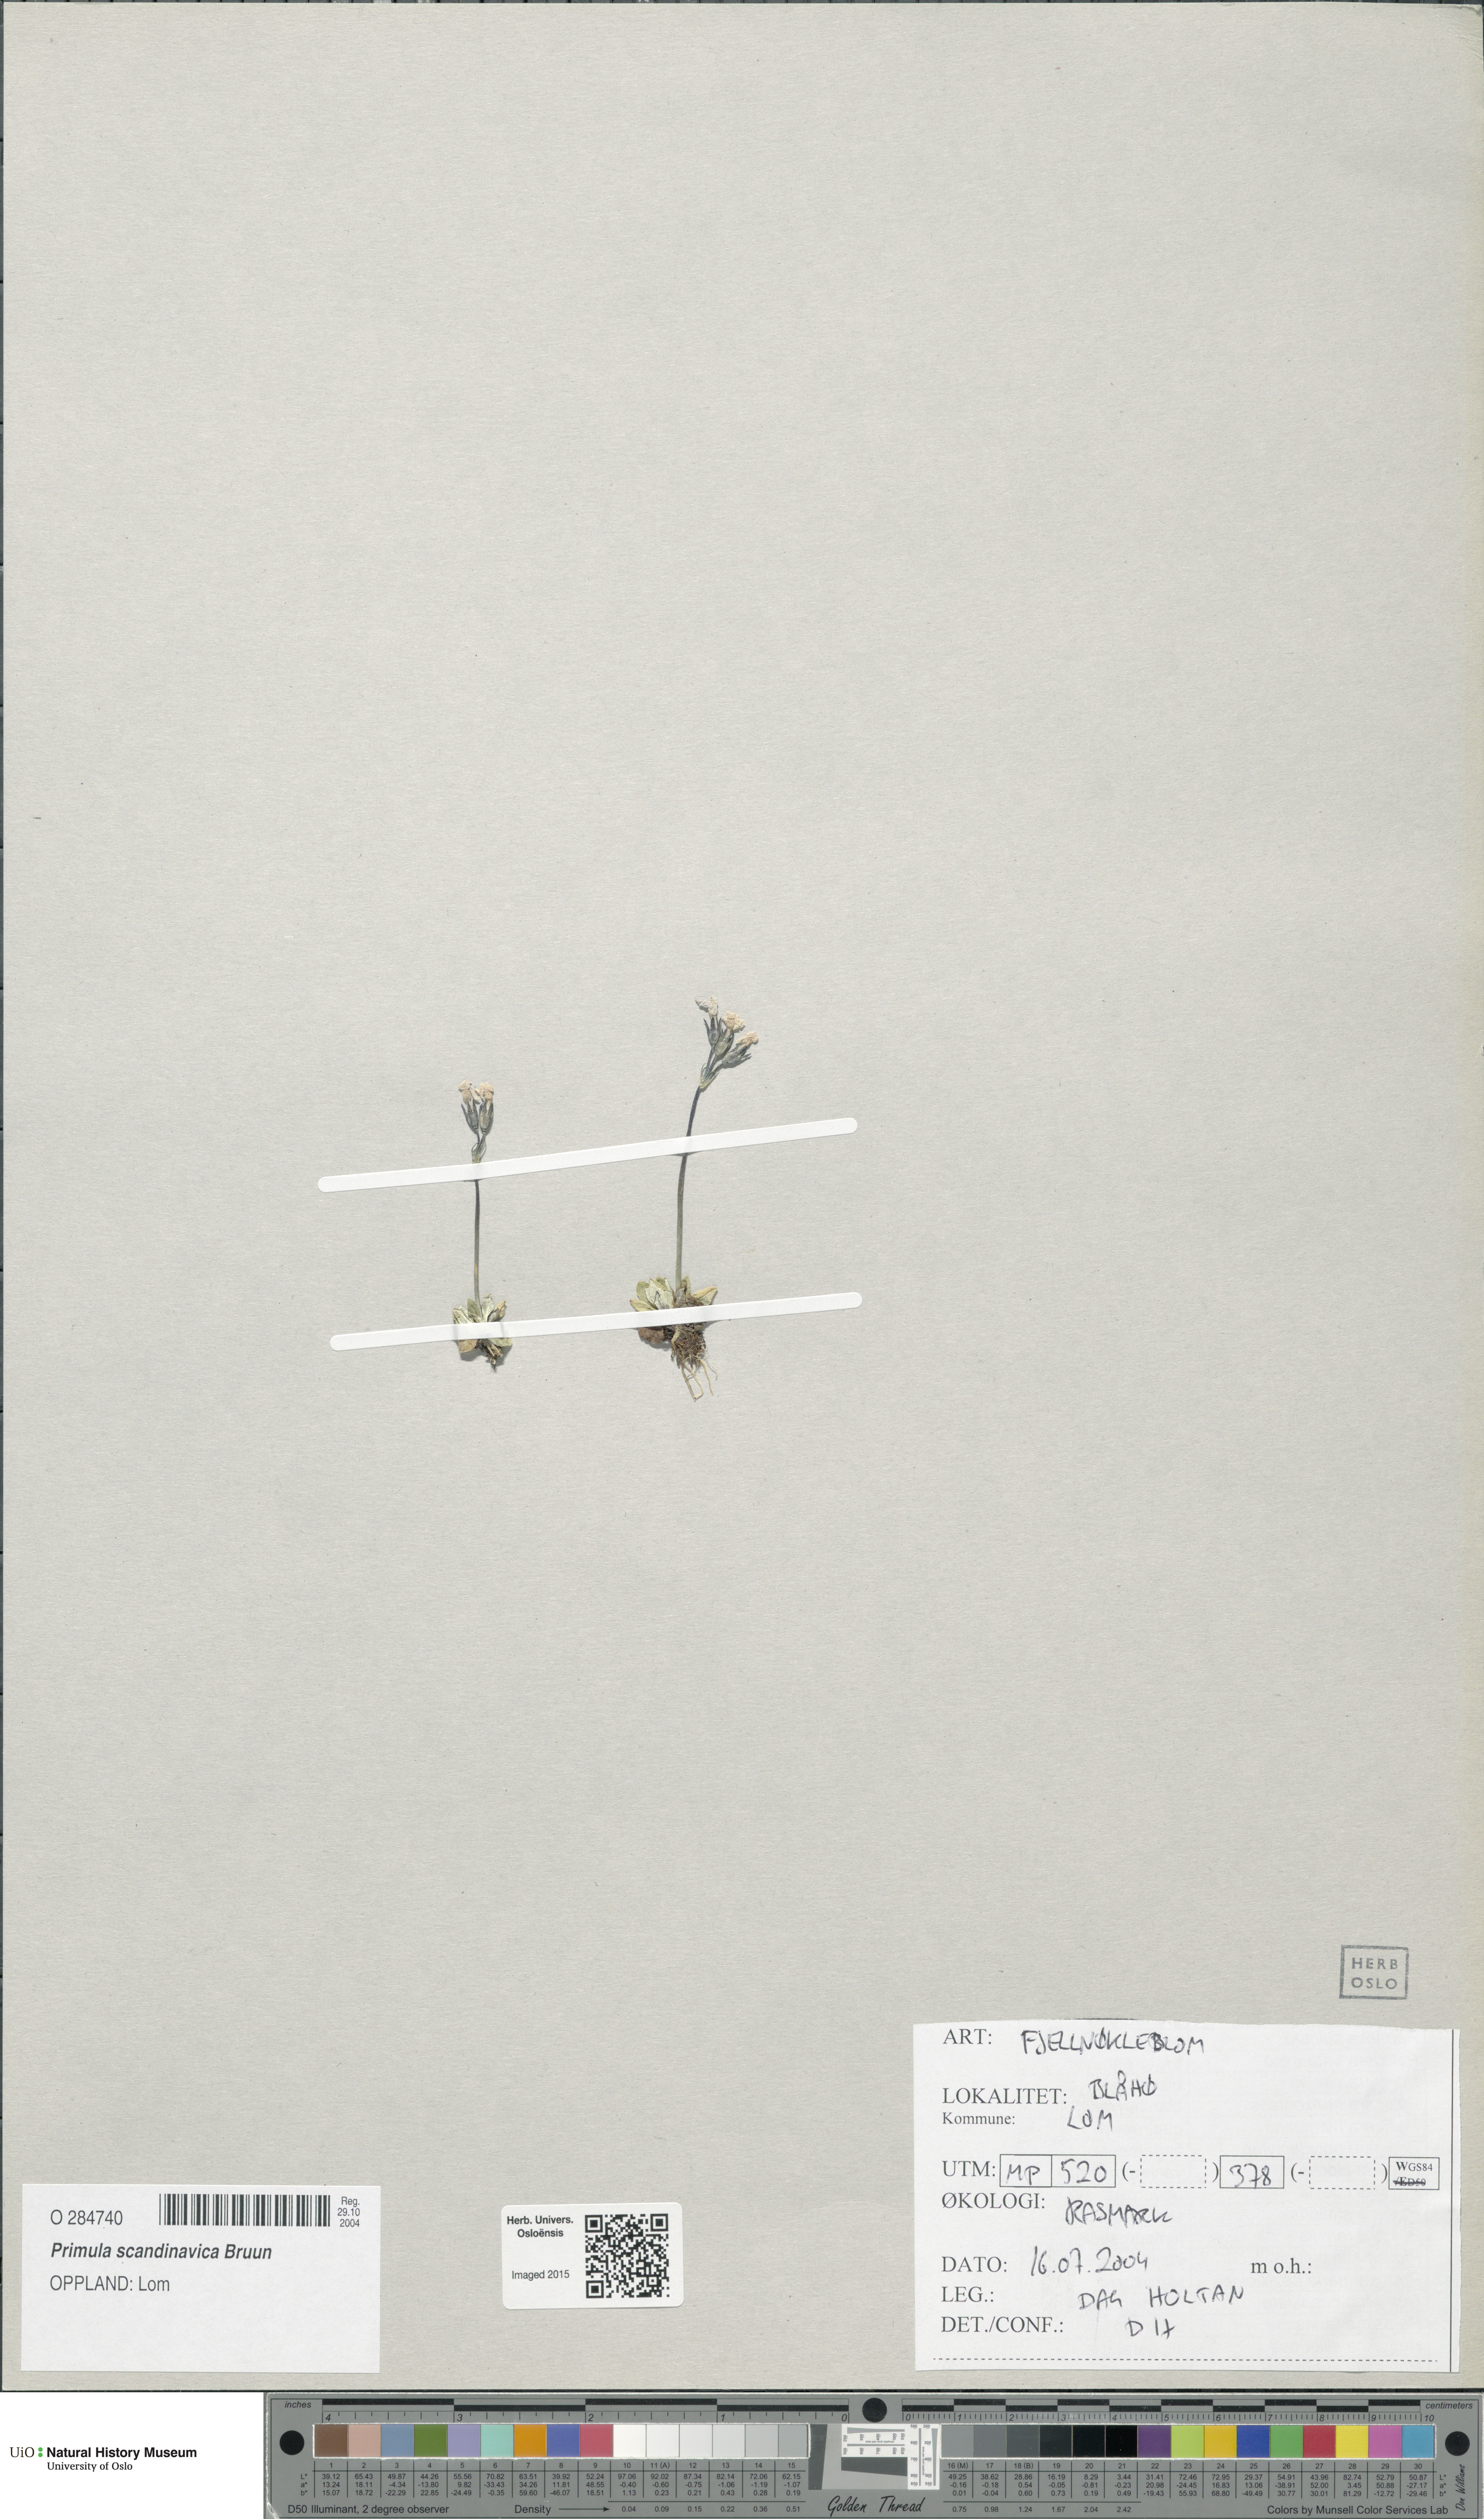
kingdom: Plantae
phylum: Tracheophyta
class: Magnoliopsida
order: Ericales
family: Primulaceae
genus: Primula
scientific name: Primula scandinavica
